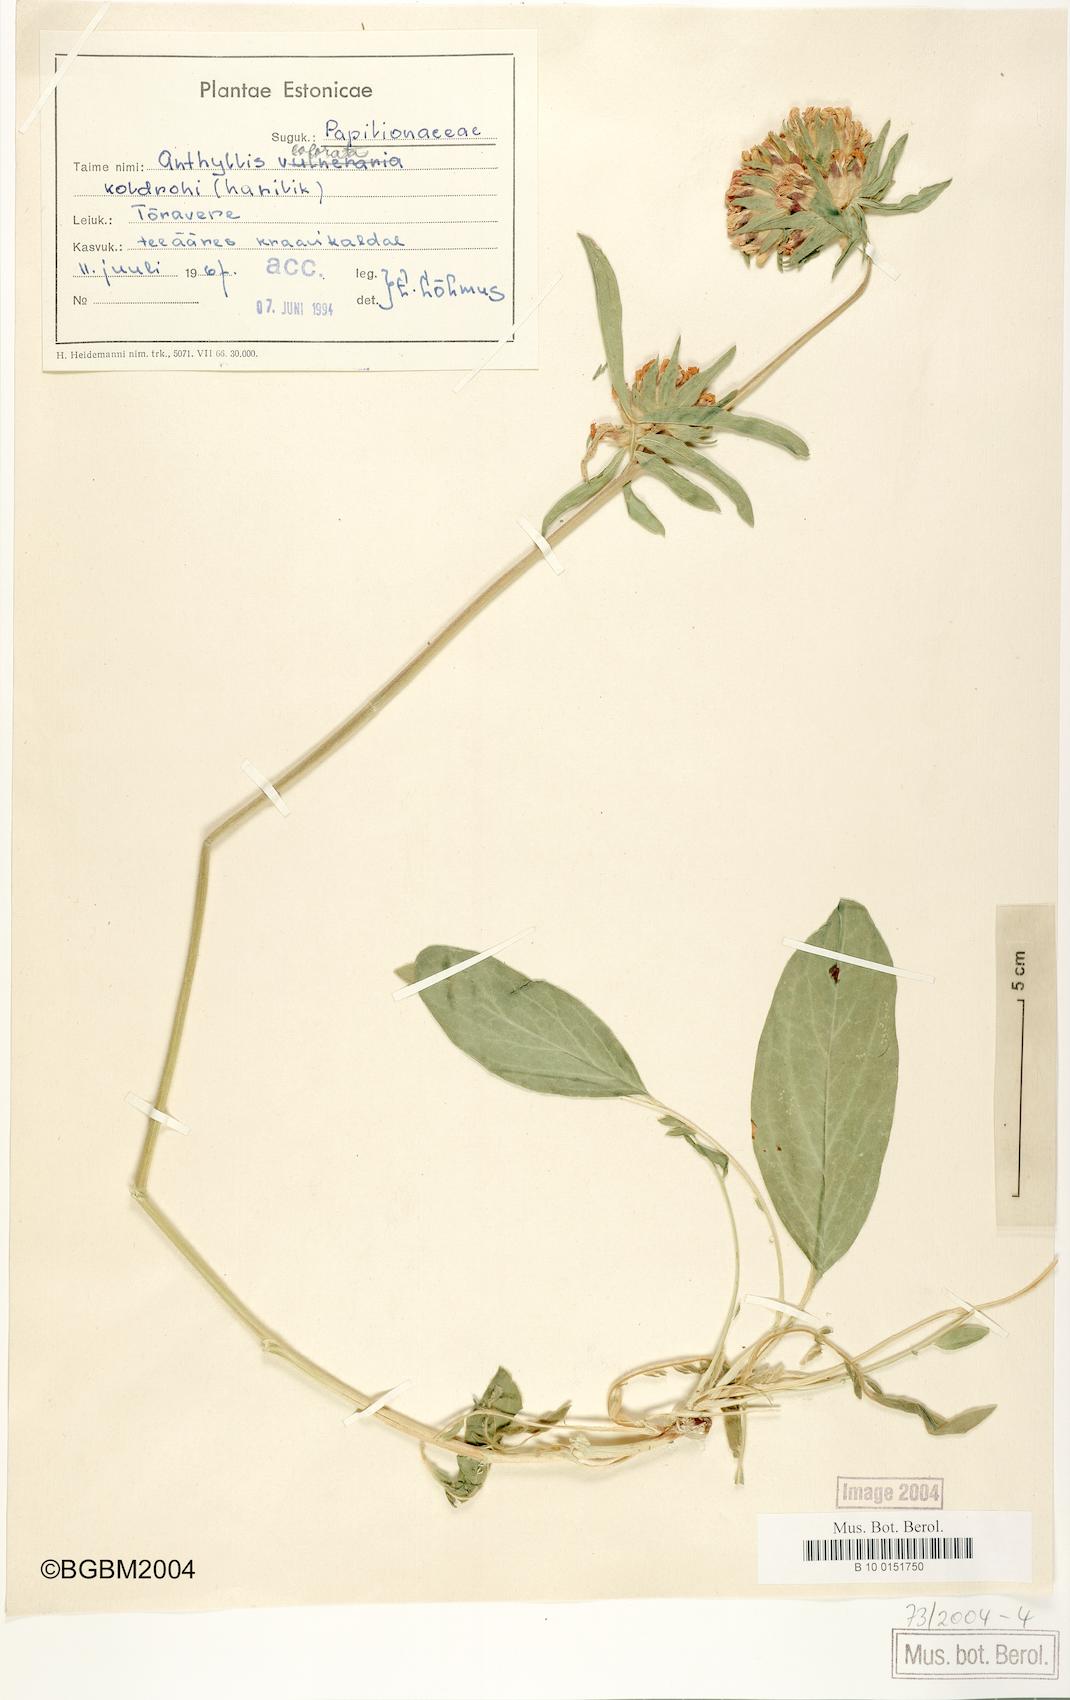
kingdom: Plantae
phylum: Tracheophyta
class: Magnoliopsida
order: Fabales
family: Fabaceae
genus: Anthyllis
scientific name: Anthyllis vulneraria
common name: Kidney vetch
